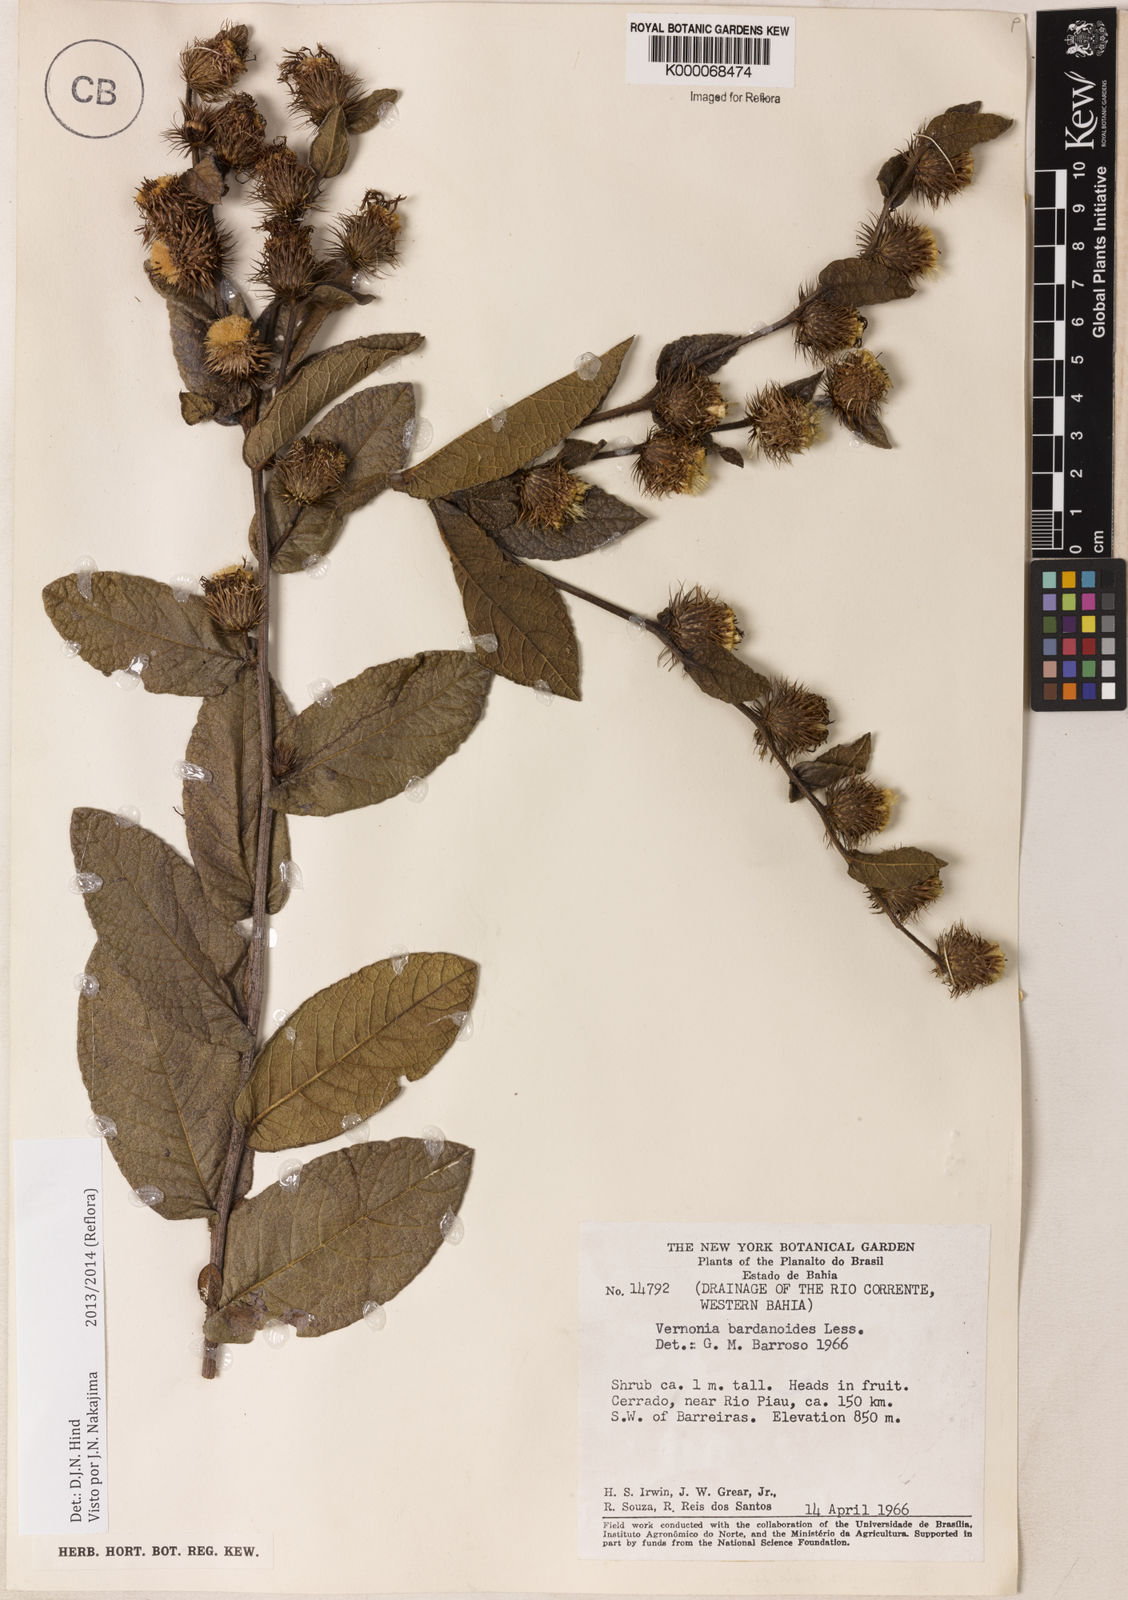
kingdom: Plantae
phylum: Tracheophyta
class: Magnoliopsida
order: Asterales
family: Asteraceae
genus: Lessingianthus
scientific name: Lessingianthus bardanioides
